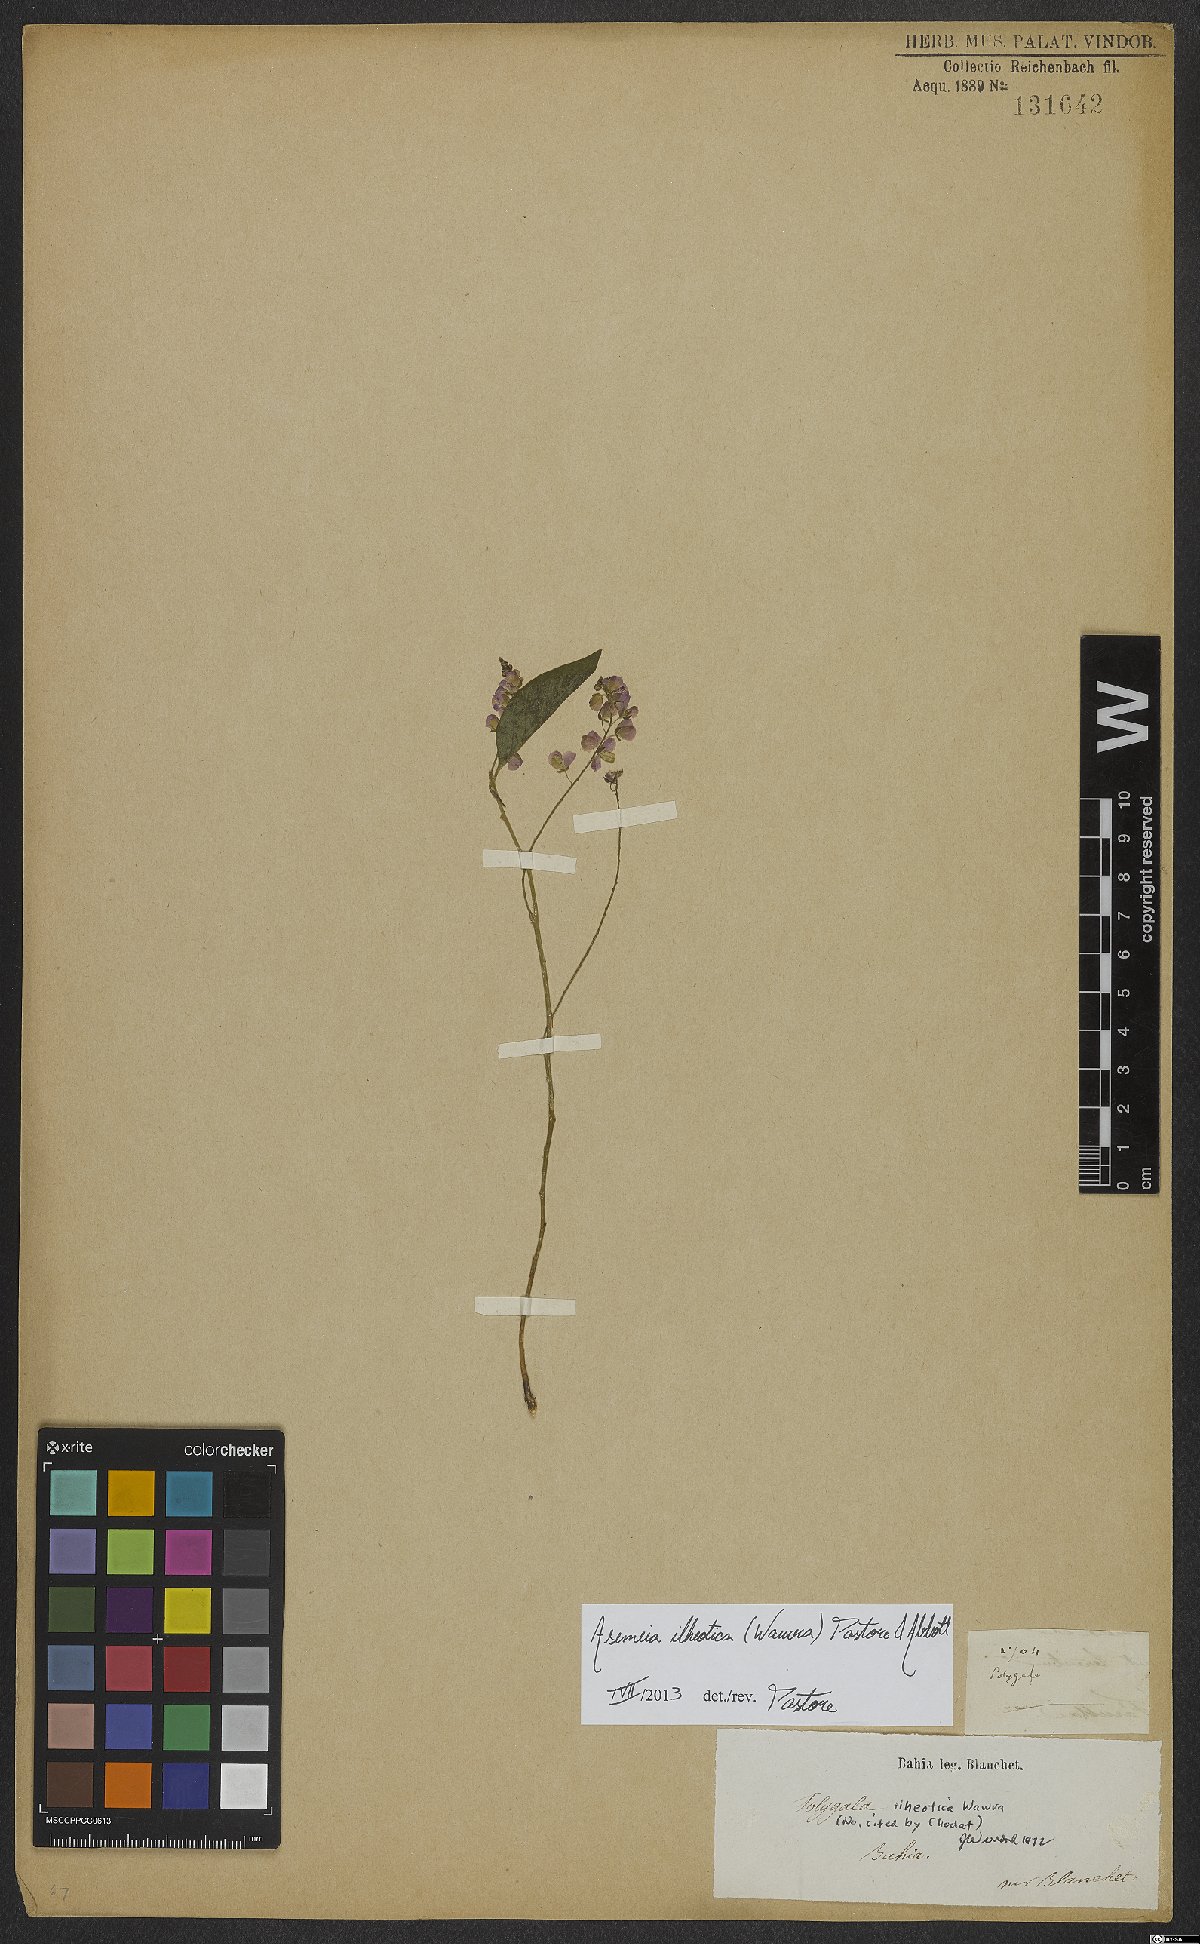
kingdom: Plantae
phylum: Tracheophyta
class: Magnoliopsida
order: Fabales
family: Polygalaceae
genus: Asemeia
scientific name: Asemeia ilheotica
